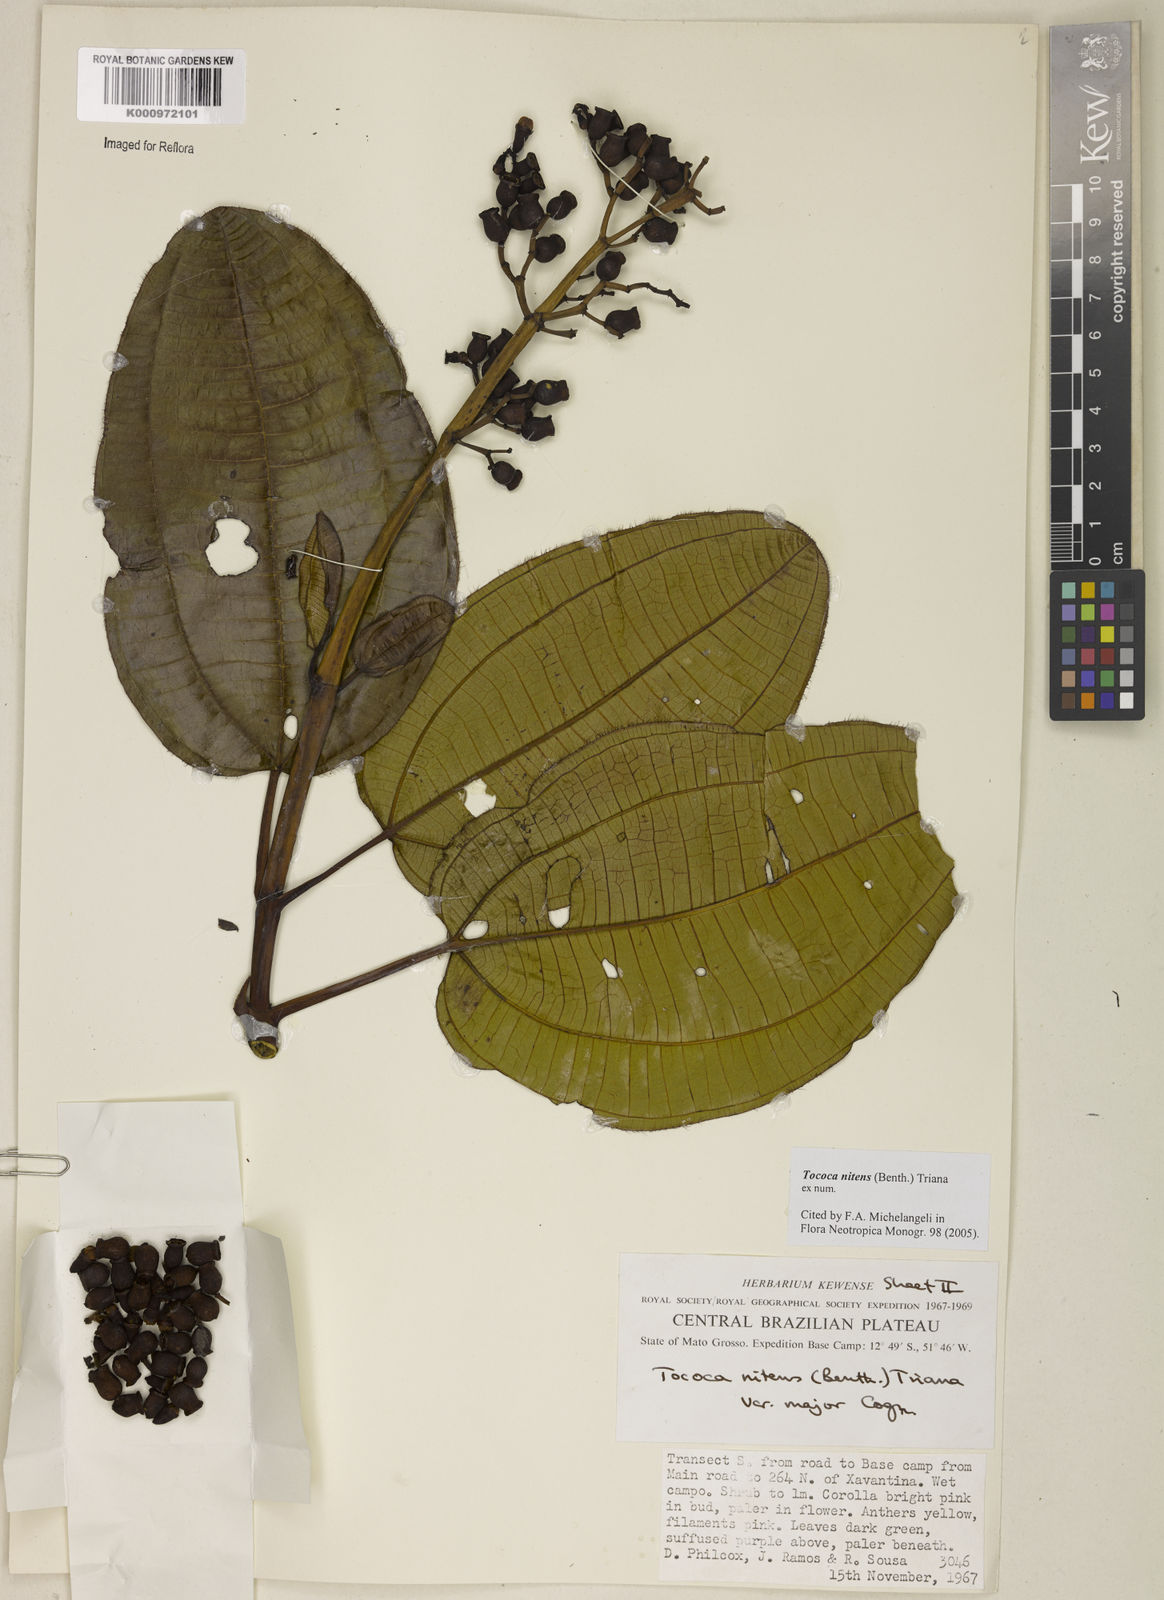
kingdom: Plantae
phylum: Tracheophyta
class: Magnoliopsida
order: Myrtales
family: Melastomataceae
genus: Miconia
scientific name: Miconia nitens
